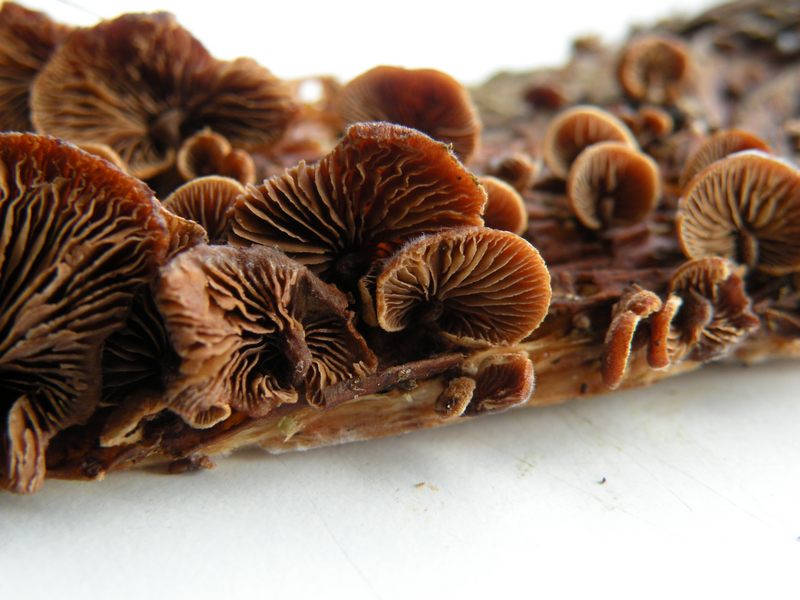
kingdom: Fungi
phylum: Basidiomycota
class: Agaricomycetes
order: Agaricales
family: Strophariaceae
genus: Deconica
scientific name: Deconica horizontalis
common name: ved-stråhat
